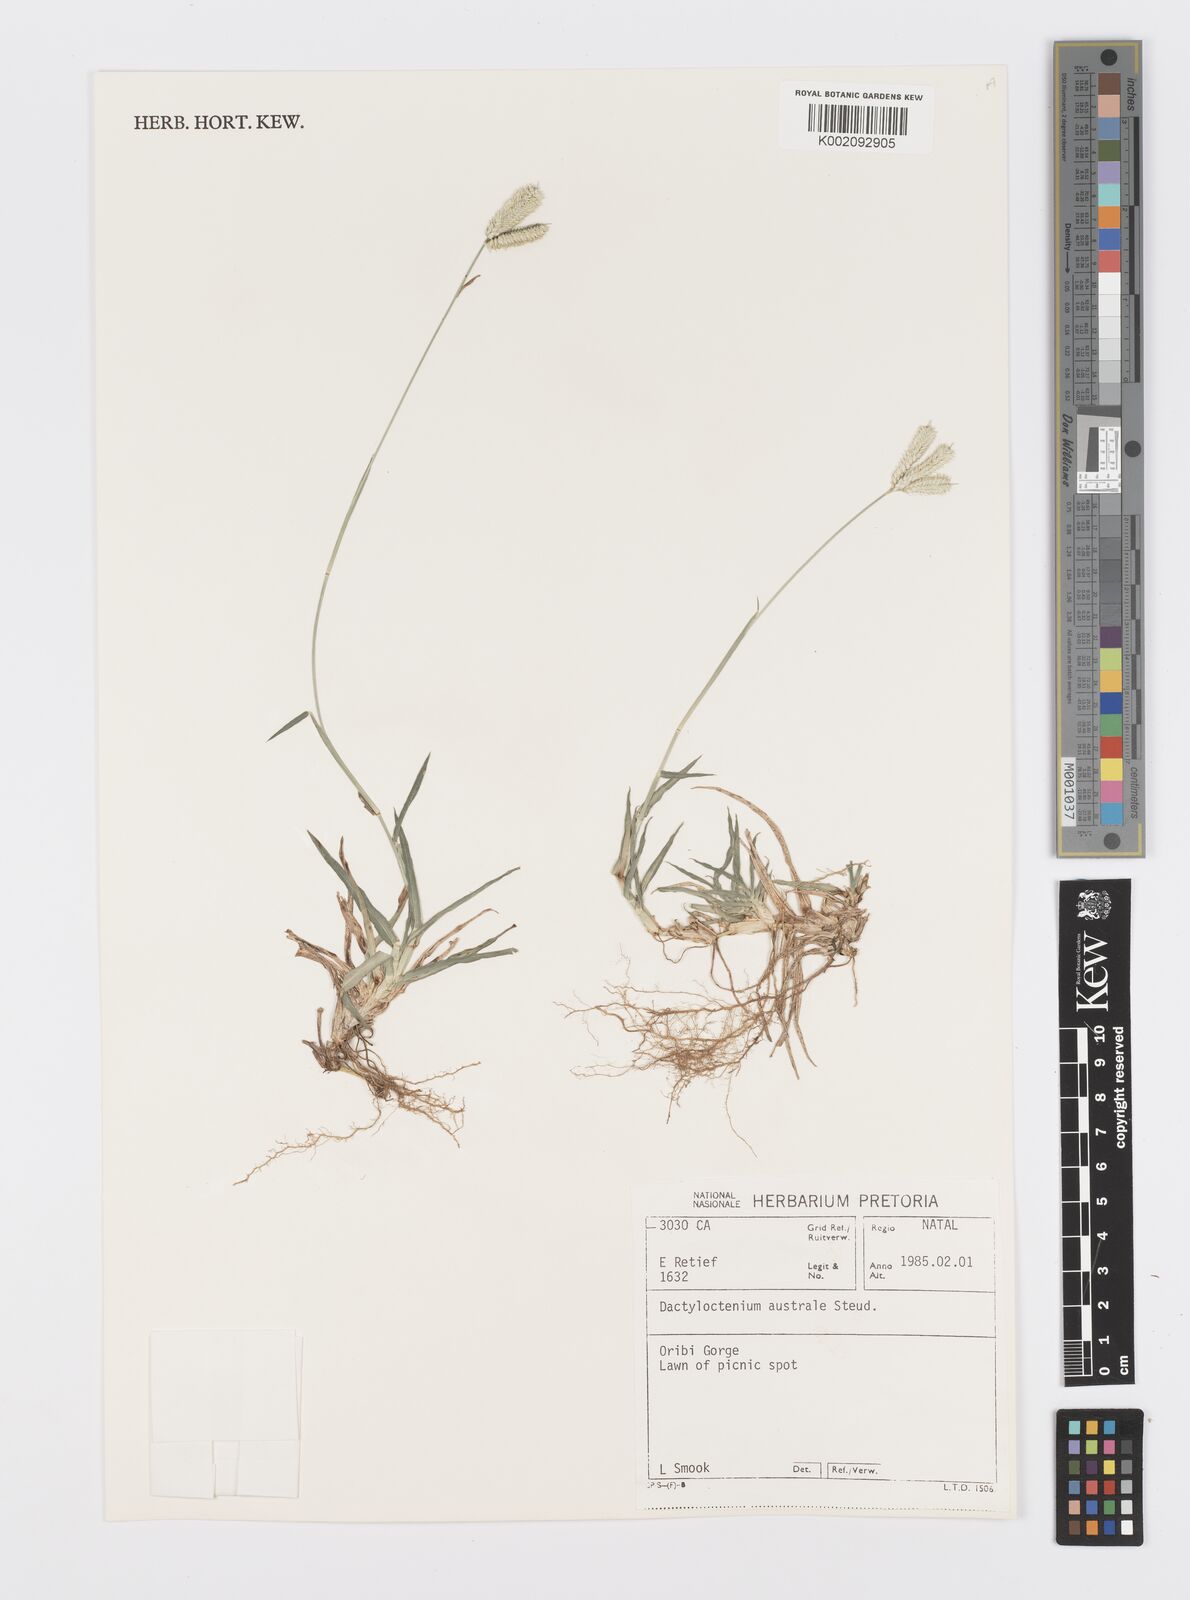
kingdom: Plantae
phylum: Tracheophyta
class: Liliopsida
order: Poales
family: Poaceae
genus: Dactyloctenium
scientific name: Dactyloctenium australe
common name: Durban grass
